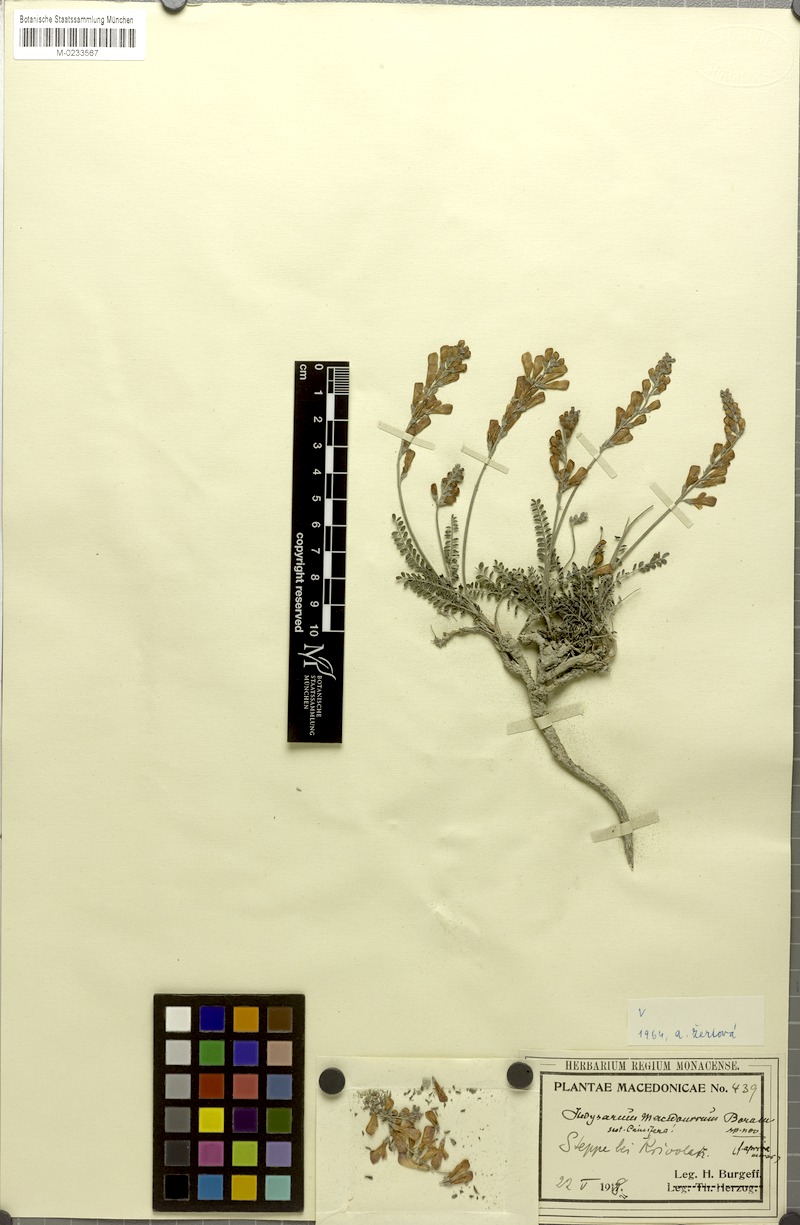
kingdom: Plantae
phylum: Tracheophyta
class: Magnoliopsida
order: Fabales
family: Fabaceae
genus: Hedysarum
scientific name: Hedysarum macedonicum
